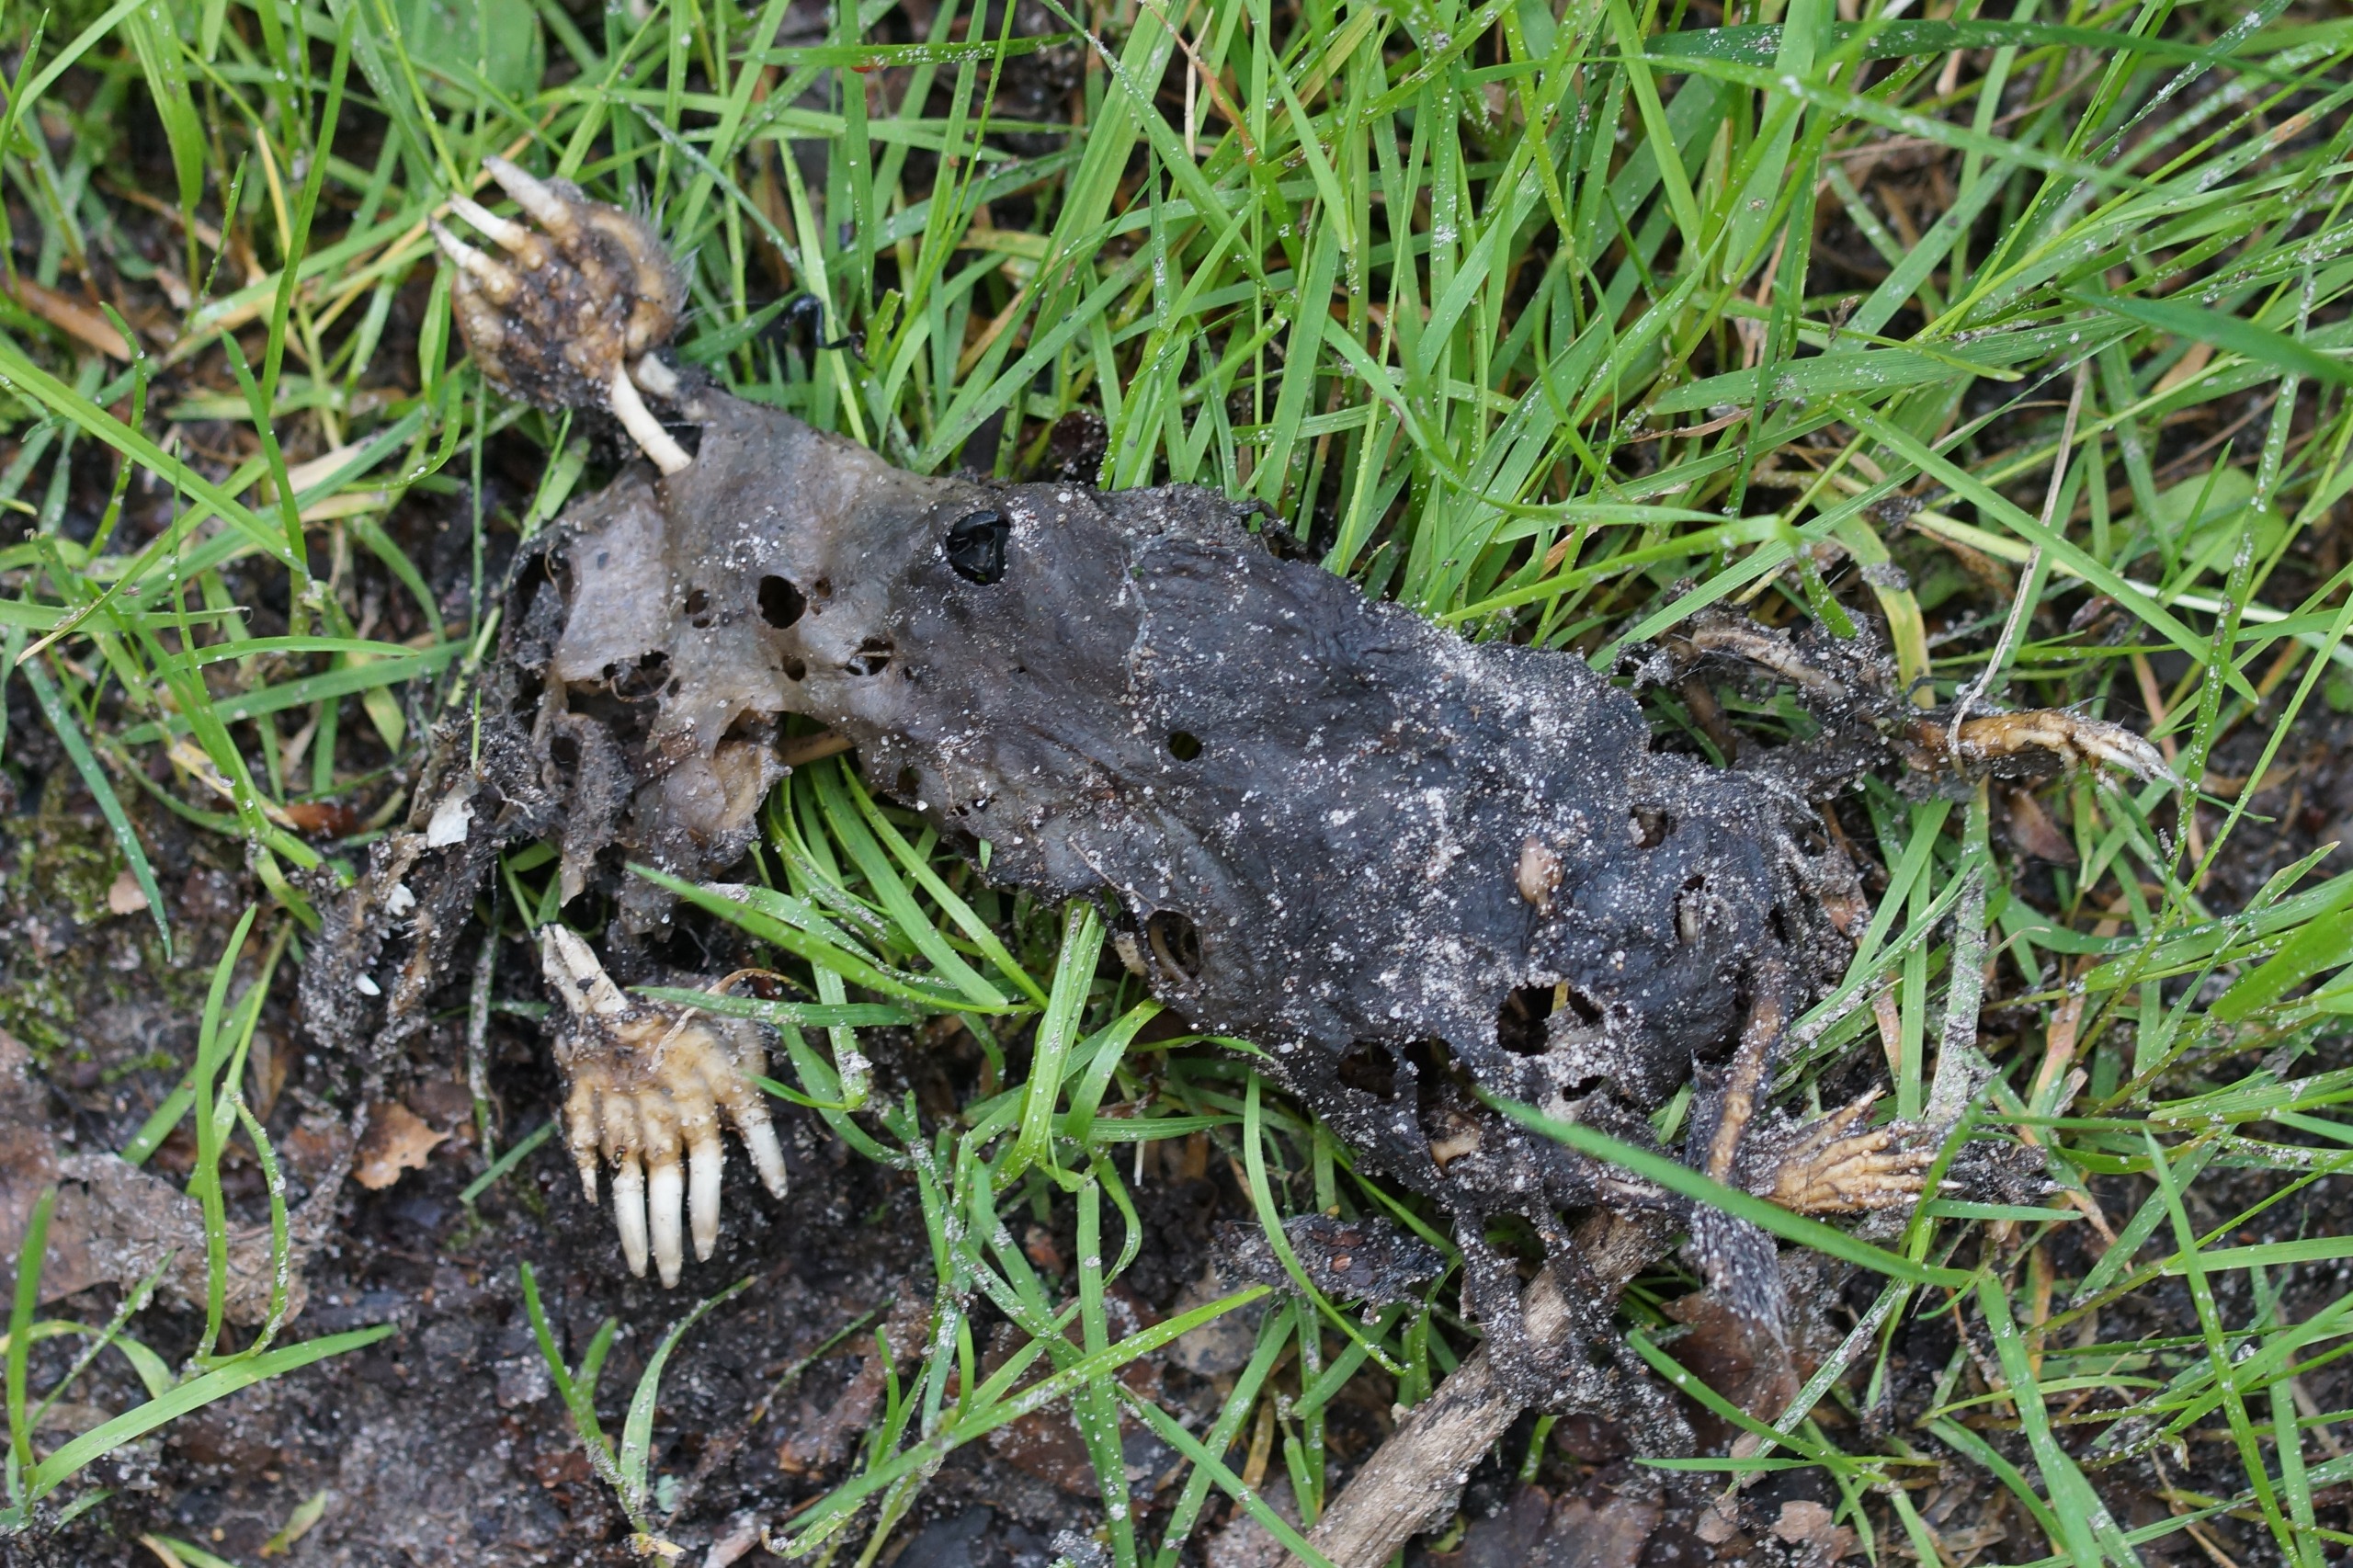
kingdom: Animalia
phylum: Chordata
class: Mammalia
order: Soricomorpha
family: Talpidae
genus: Talpa
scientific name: Talpa europaea
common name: Muldvarp
